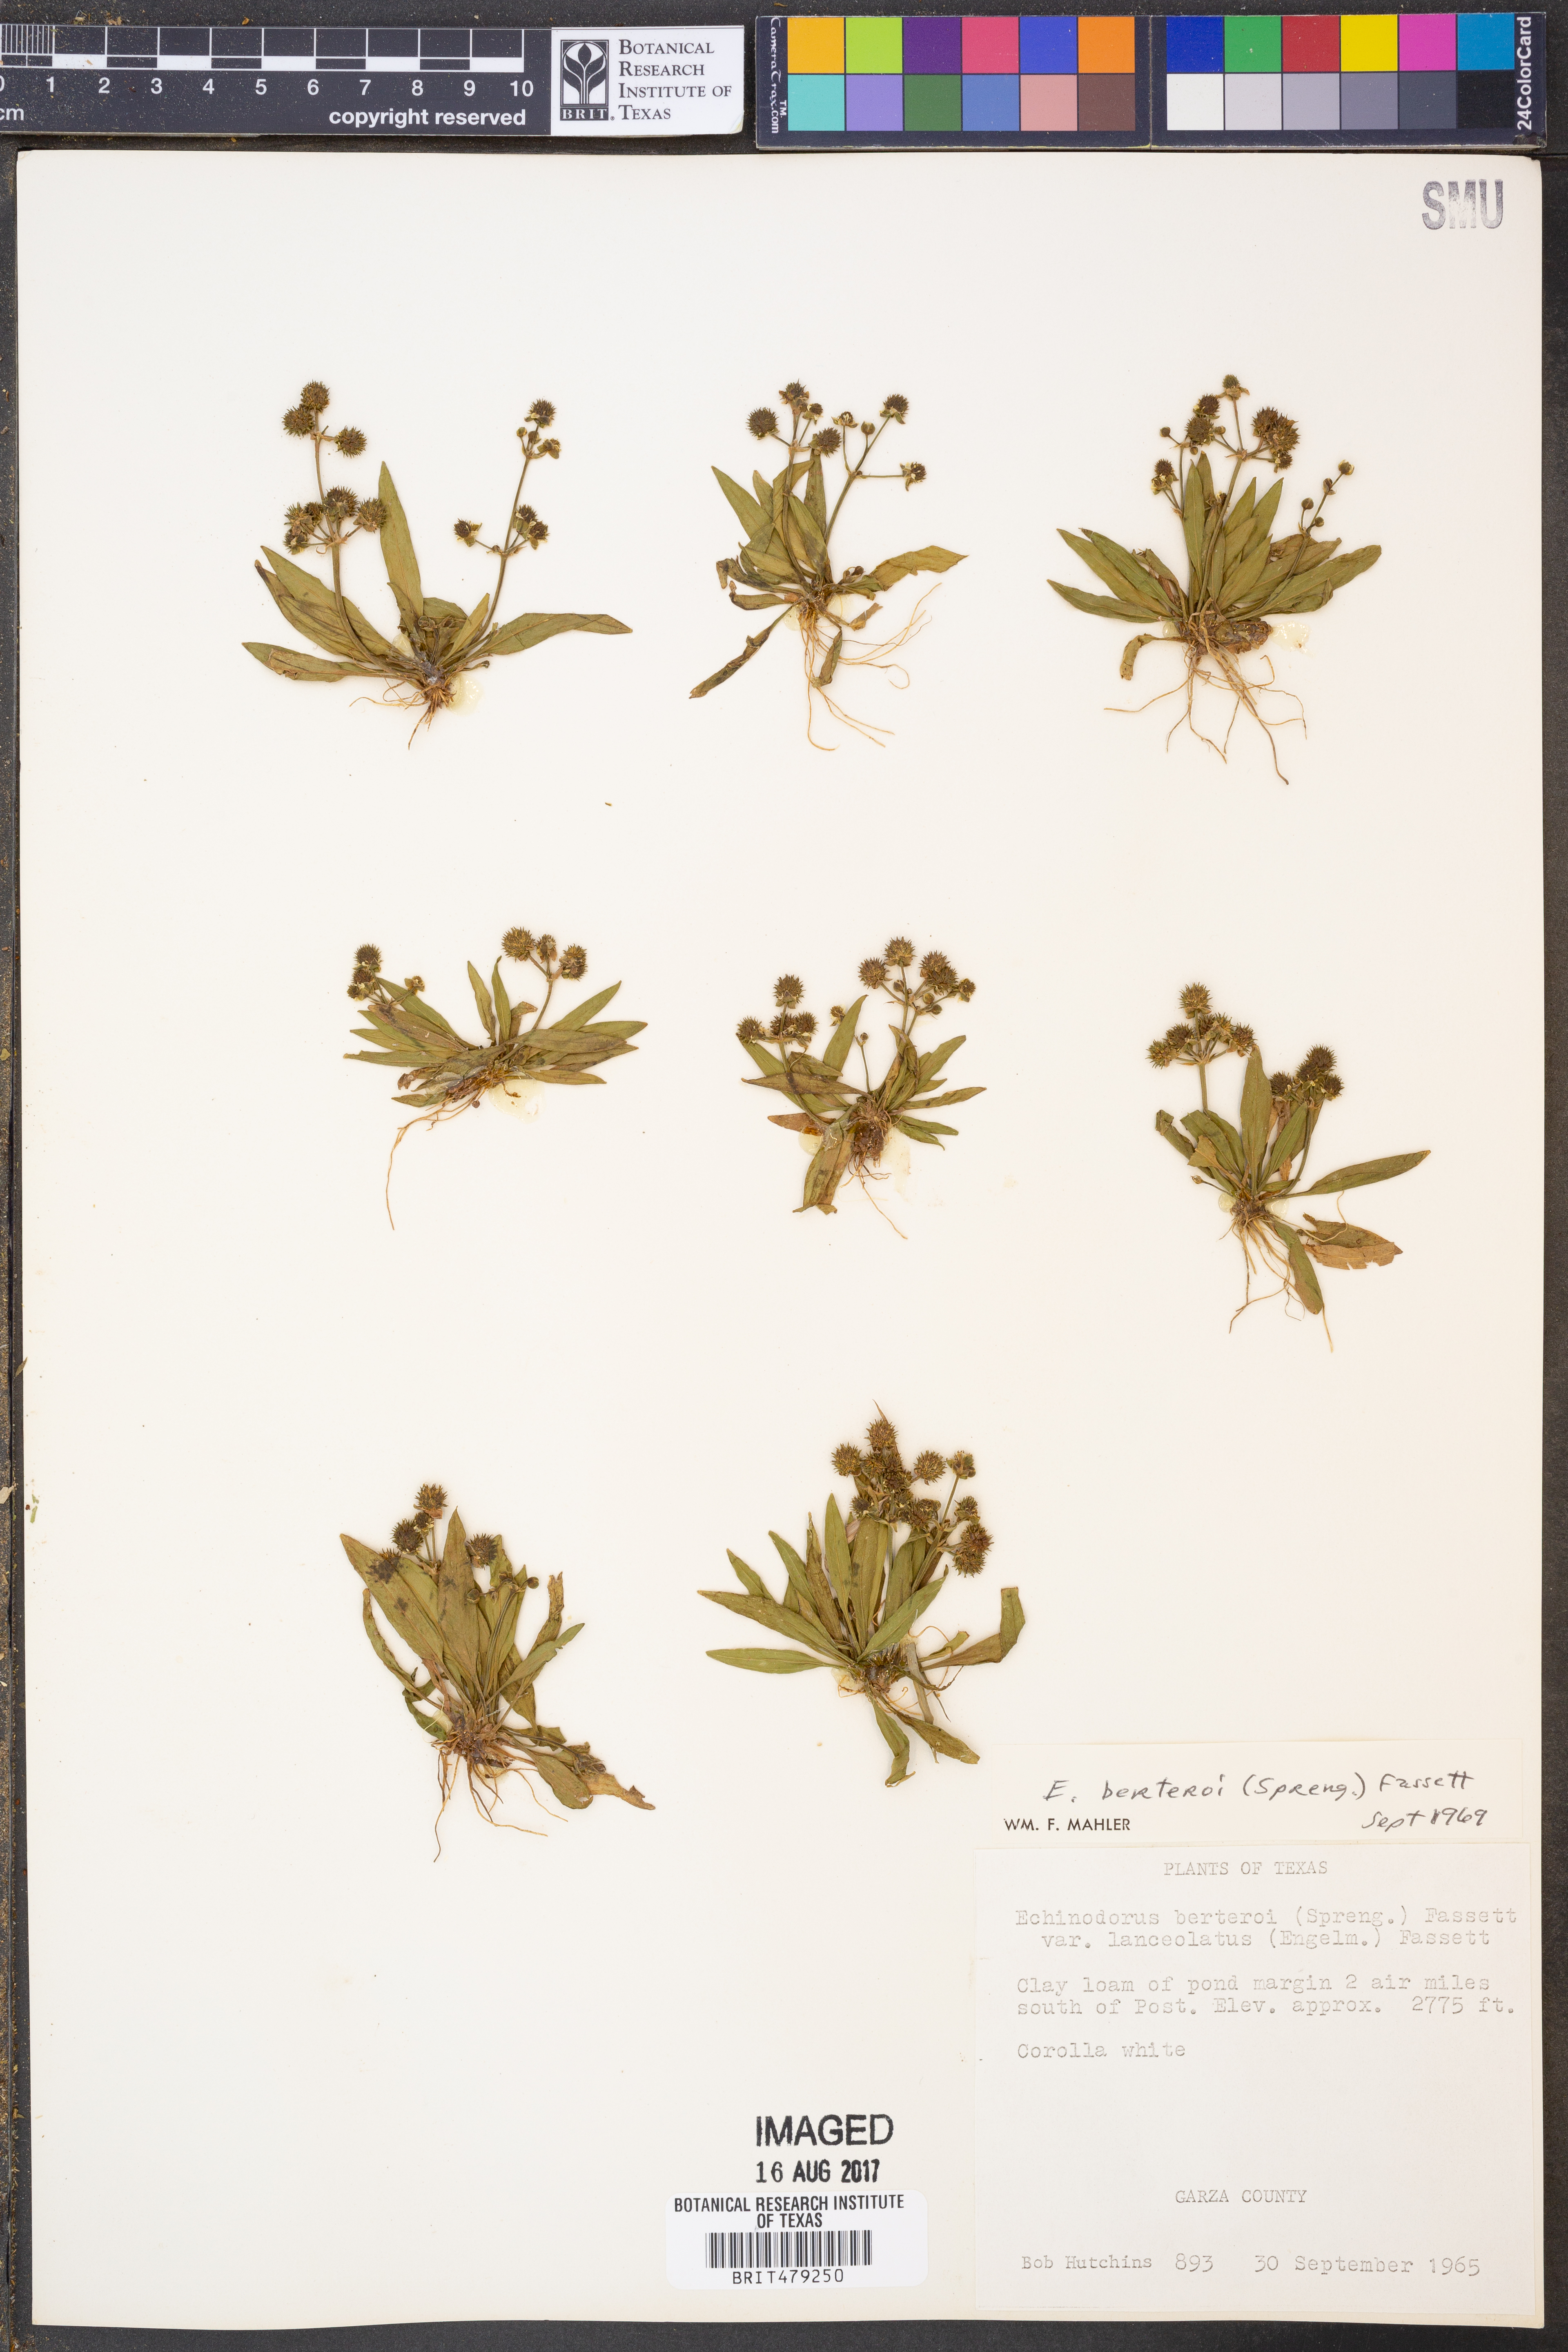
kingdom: Plantae
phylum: Tracheophyta
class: Liliopsida
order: Alismatales
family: Alismataceae
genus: Echinodorus
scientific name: Echinodorus berteroi
